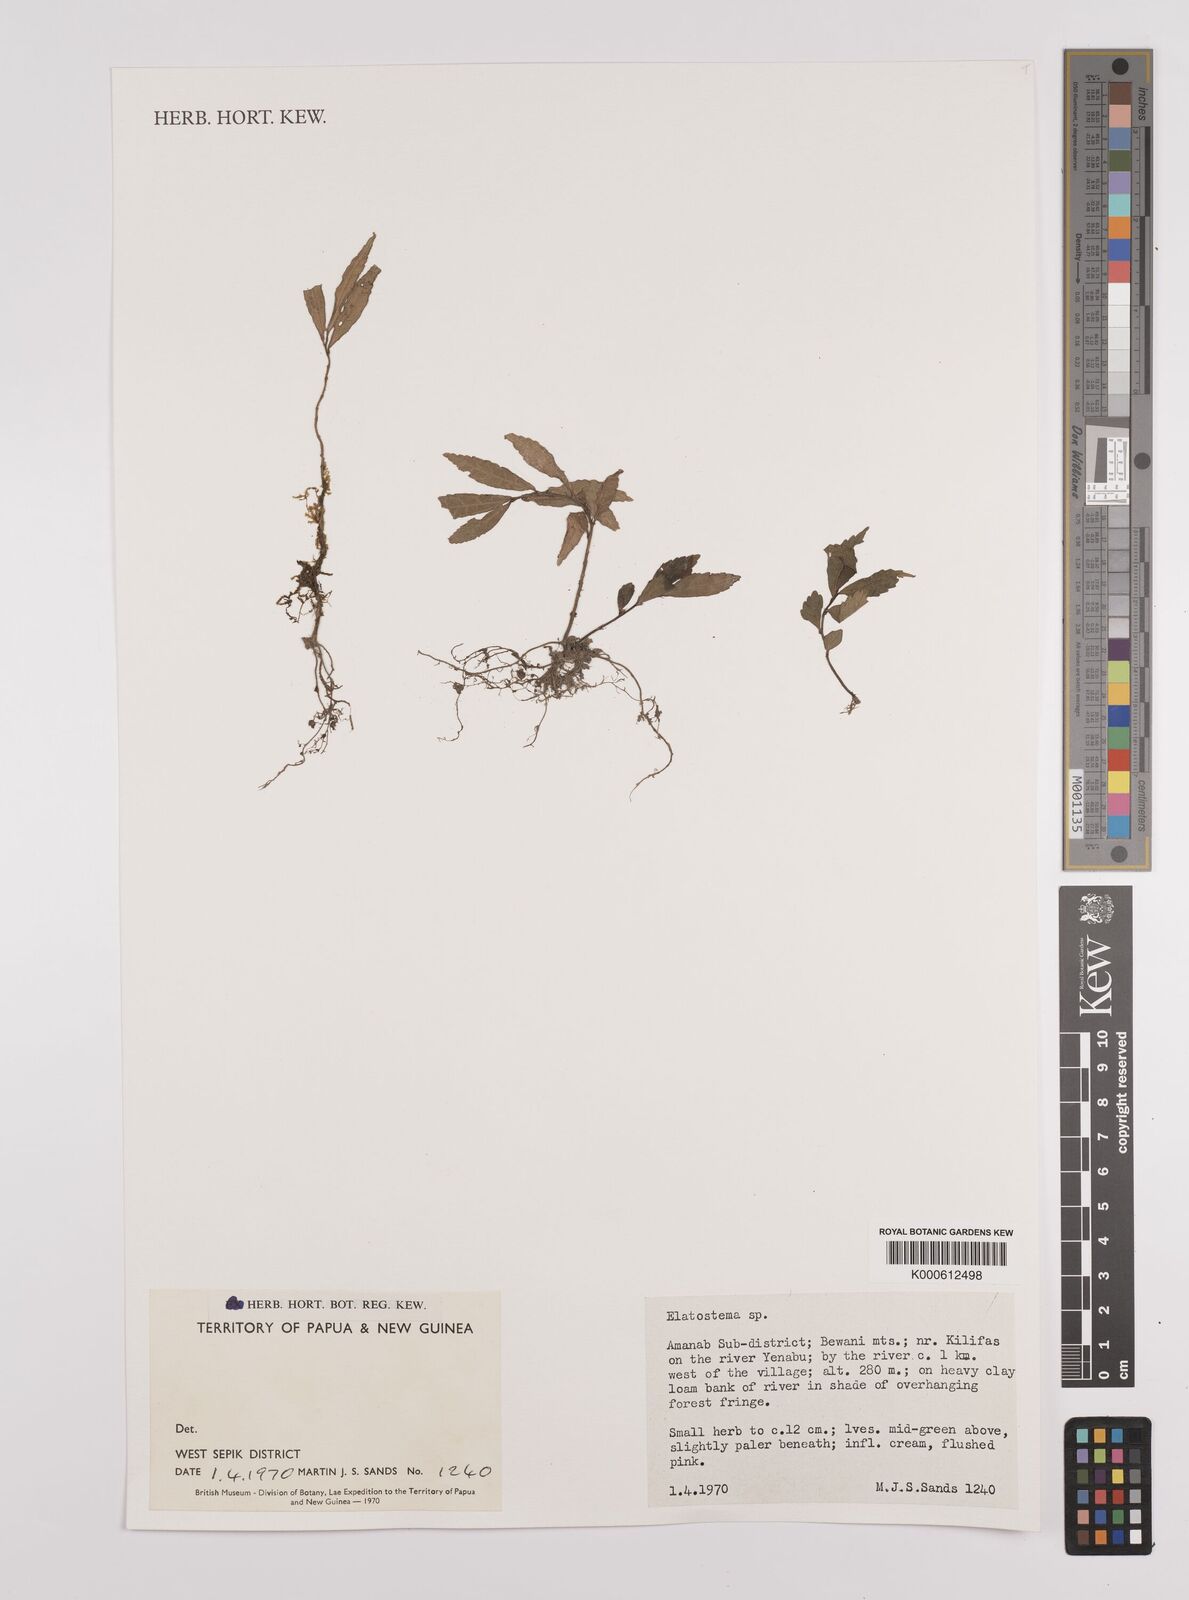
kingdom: Plantae
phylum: Tracheophyta
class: Magnoliopsida
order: Rosales
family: Urticaceae
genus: Elatostema
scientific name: Elatostema
